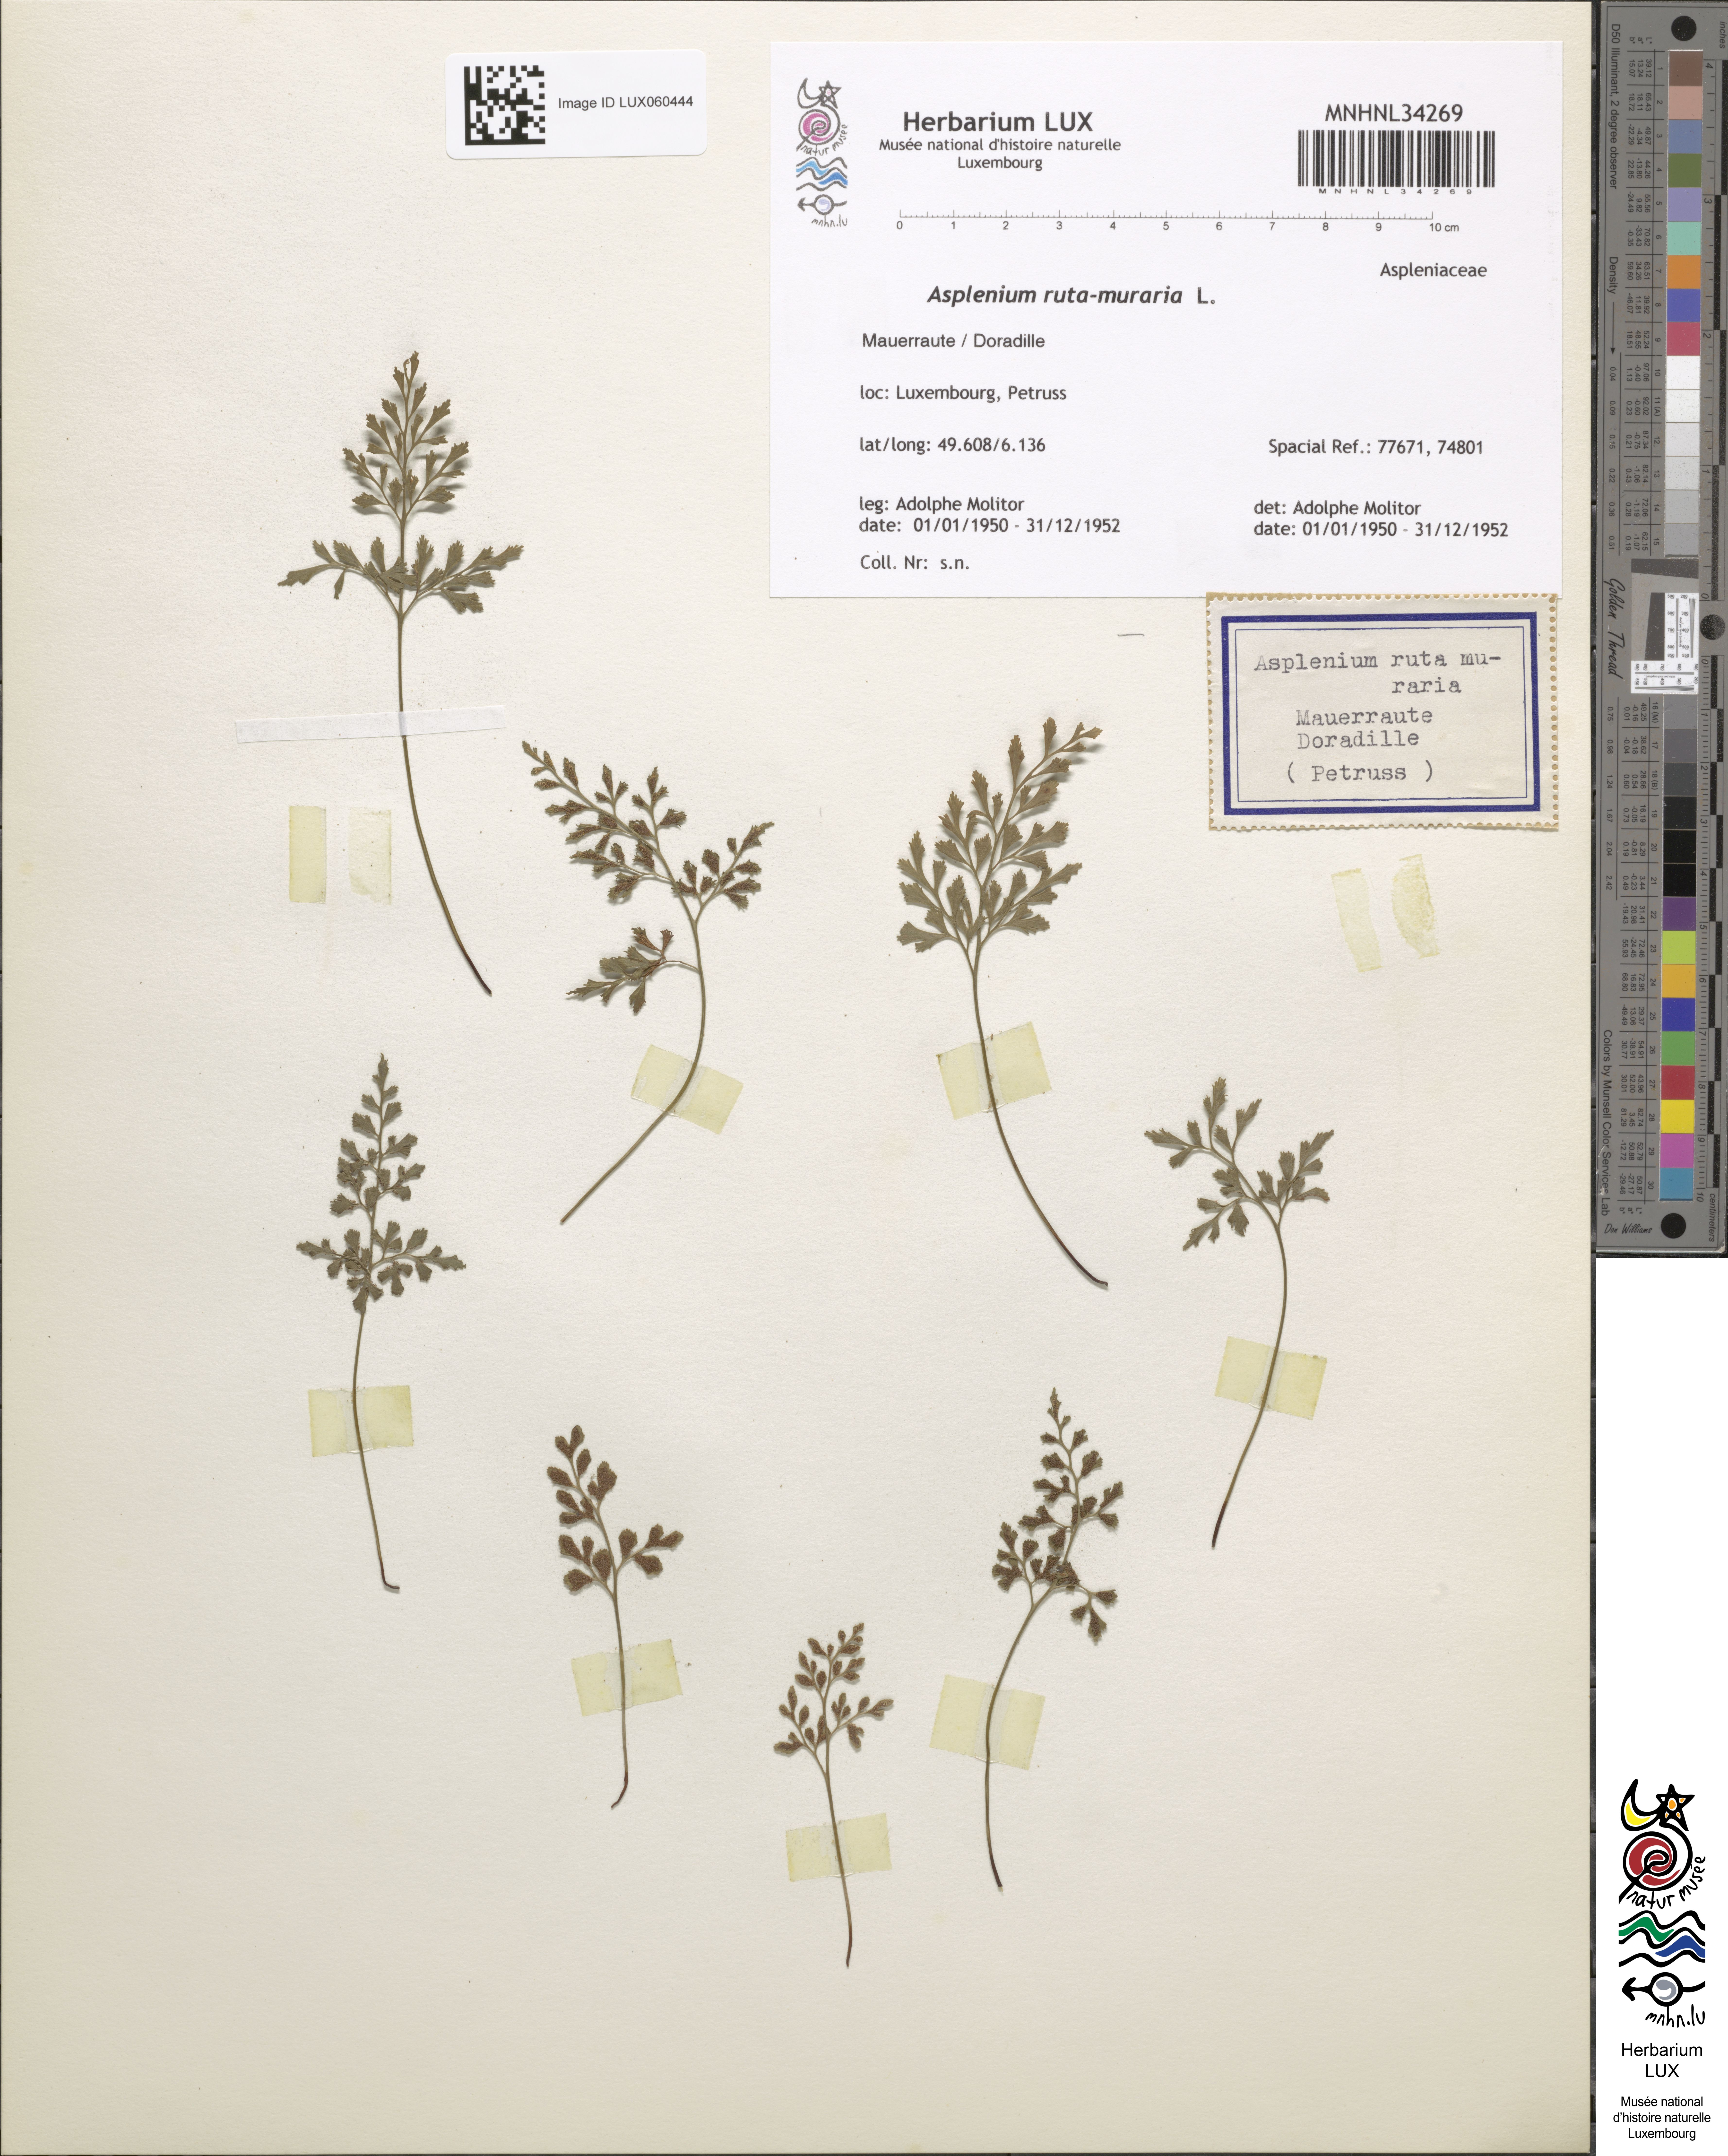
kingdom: Plantae
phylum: Tracheophyta
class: Polypodiopsida
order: Polypodiales
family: Aspleniaceae
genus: Asplenium
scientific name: Asplenium ruta-muraria
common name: Wall-rue
